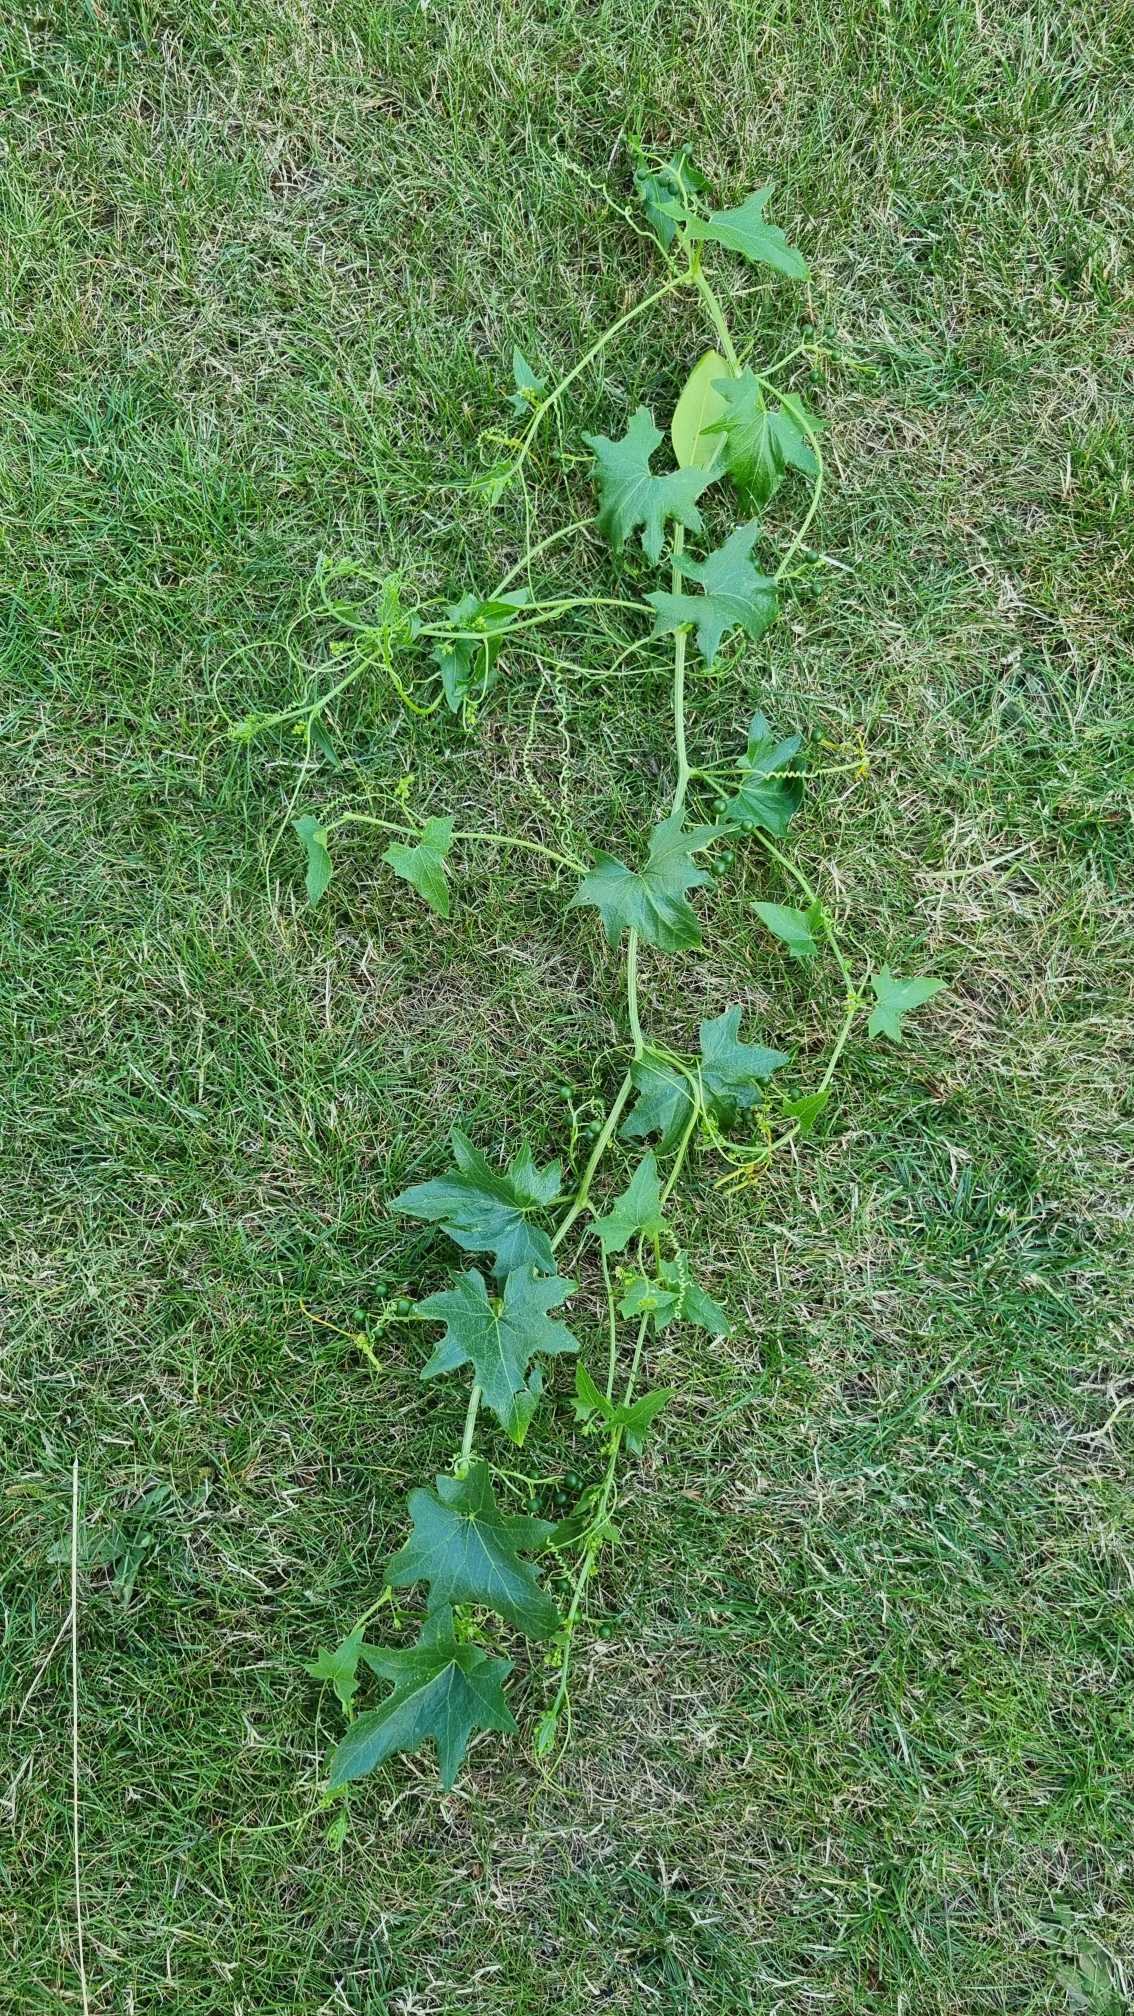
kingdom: Plantae
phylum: Tracheophyta
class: Magnoliopsida
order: Cucurbitales
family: Cucurbitaceae
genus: Bryonia
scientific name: Bryonia alba
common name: Enbo galdebær
